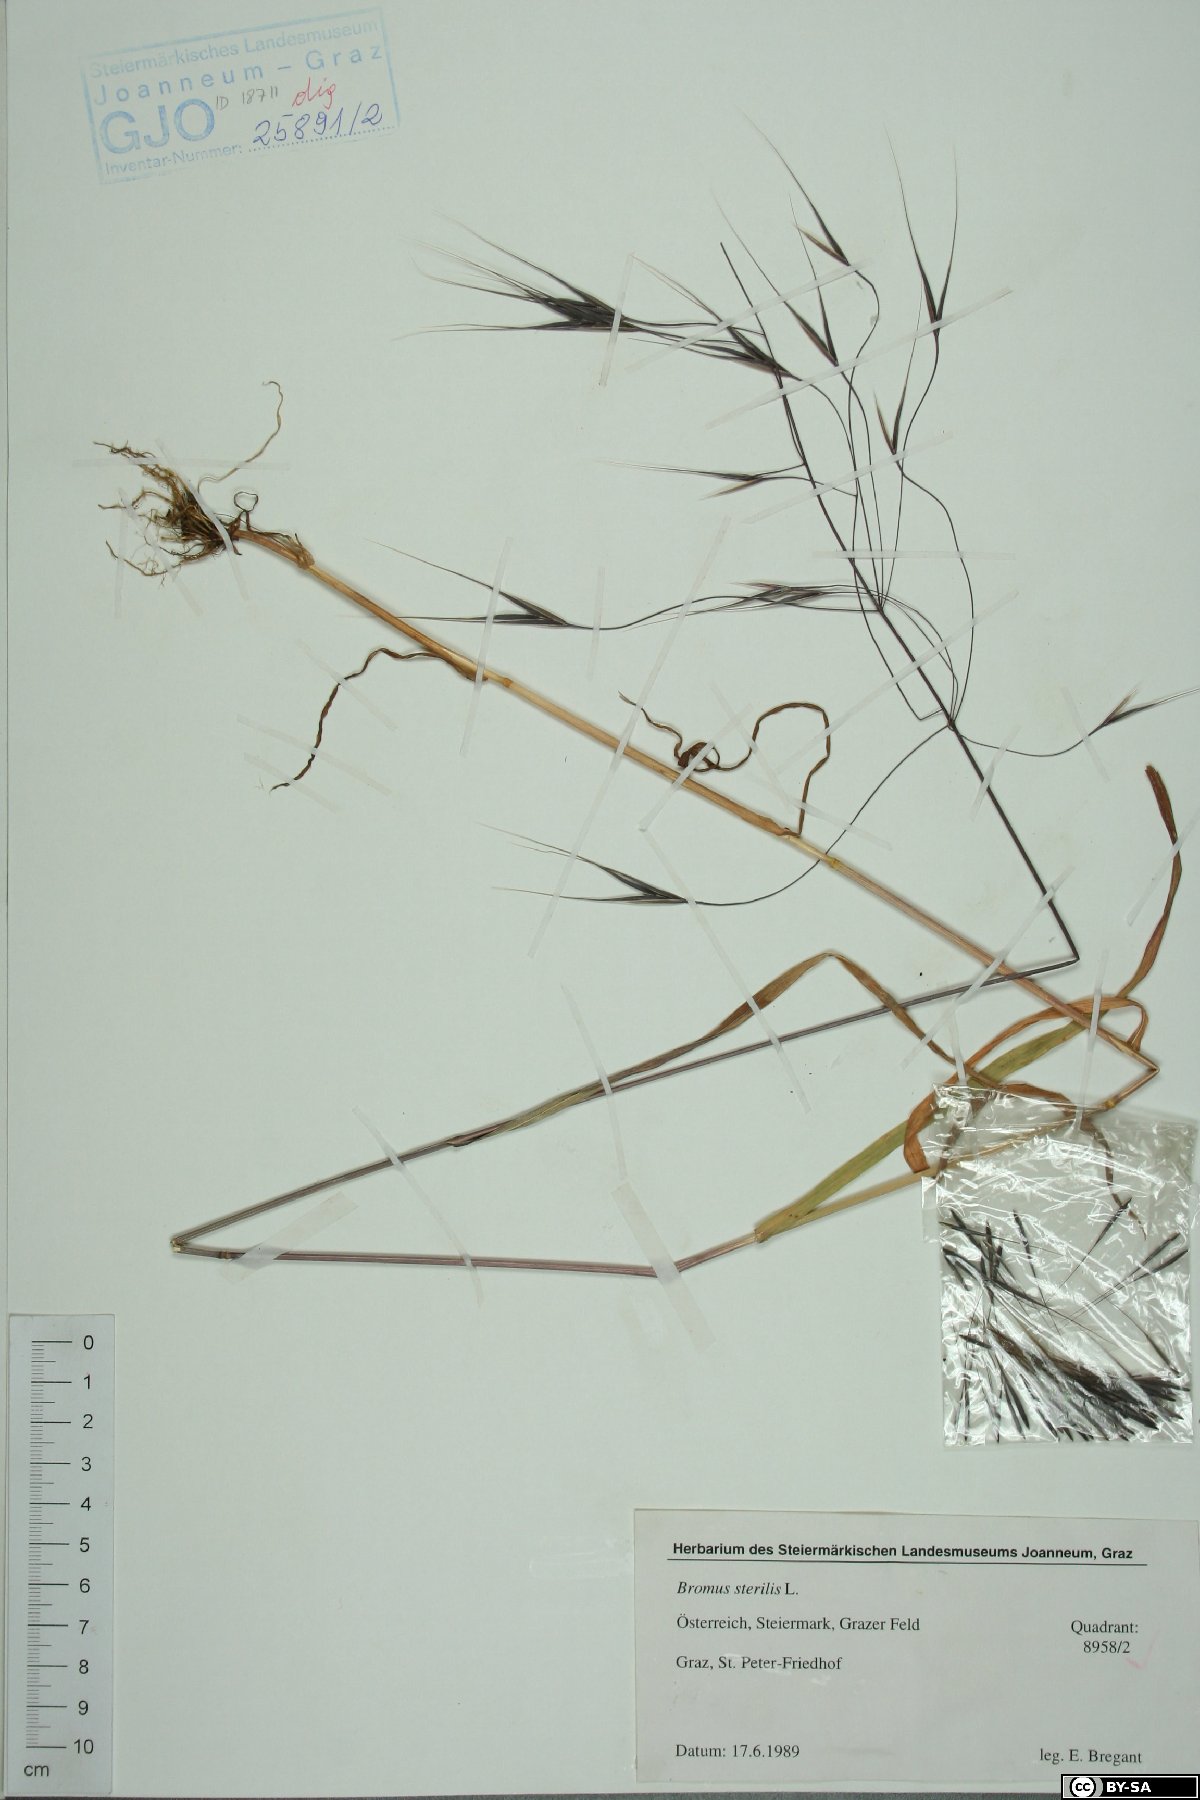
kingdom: Plantae
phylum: Tracheophyta
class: Liliopsida
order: Poales
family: Poaceae
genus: Bromus
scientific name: Bromus sterilis
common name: Poverty brome
